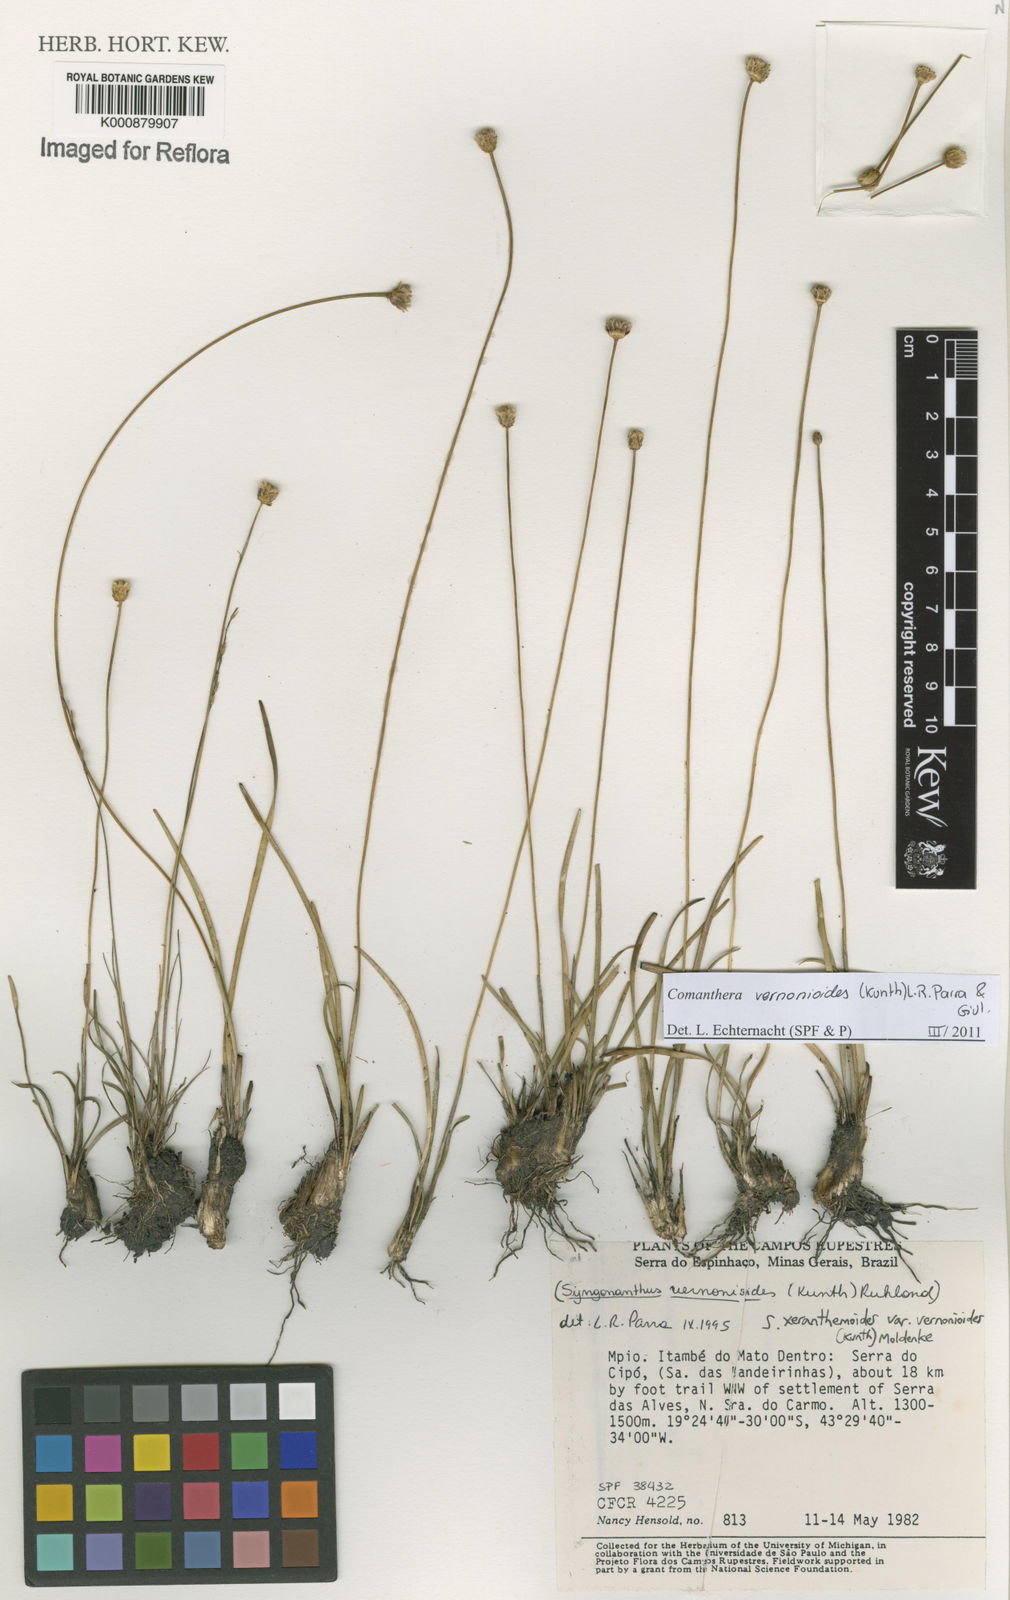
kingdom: Plantae
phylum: Tracheophyta
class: Liliopsida
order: Poales
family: Eriocaulaceae
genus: Comanthera
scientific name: Comanthera centauroides
